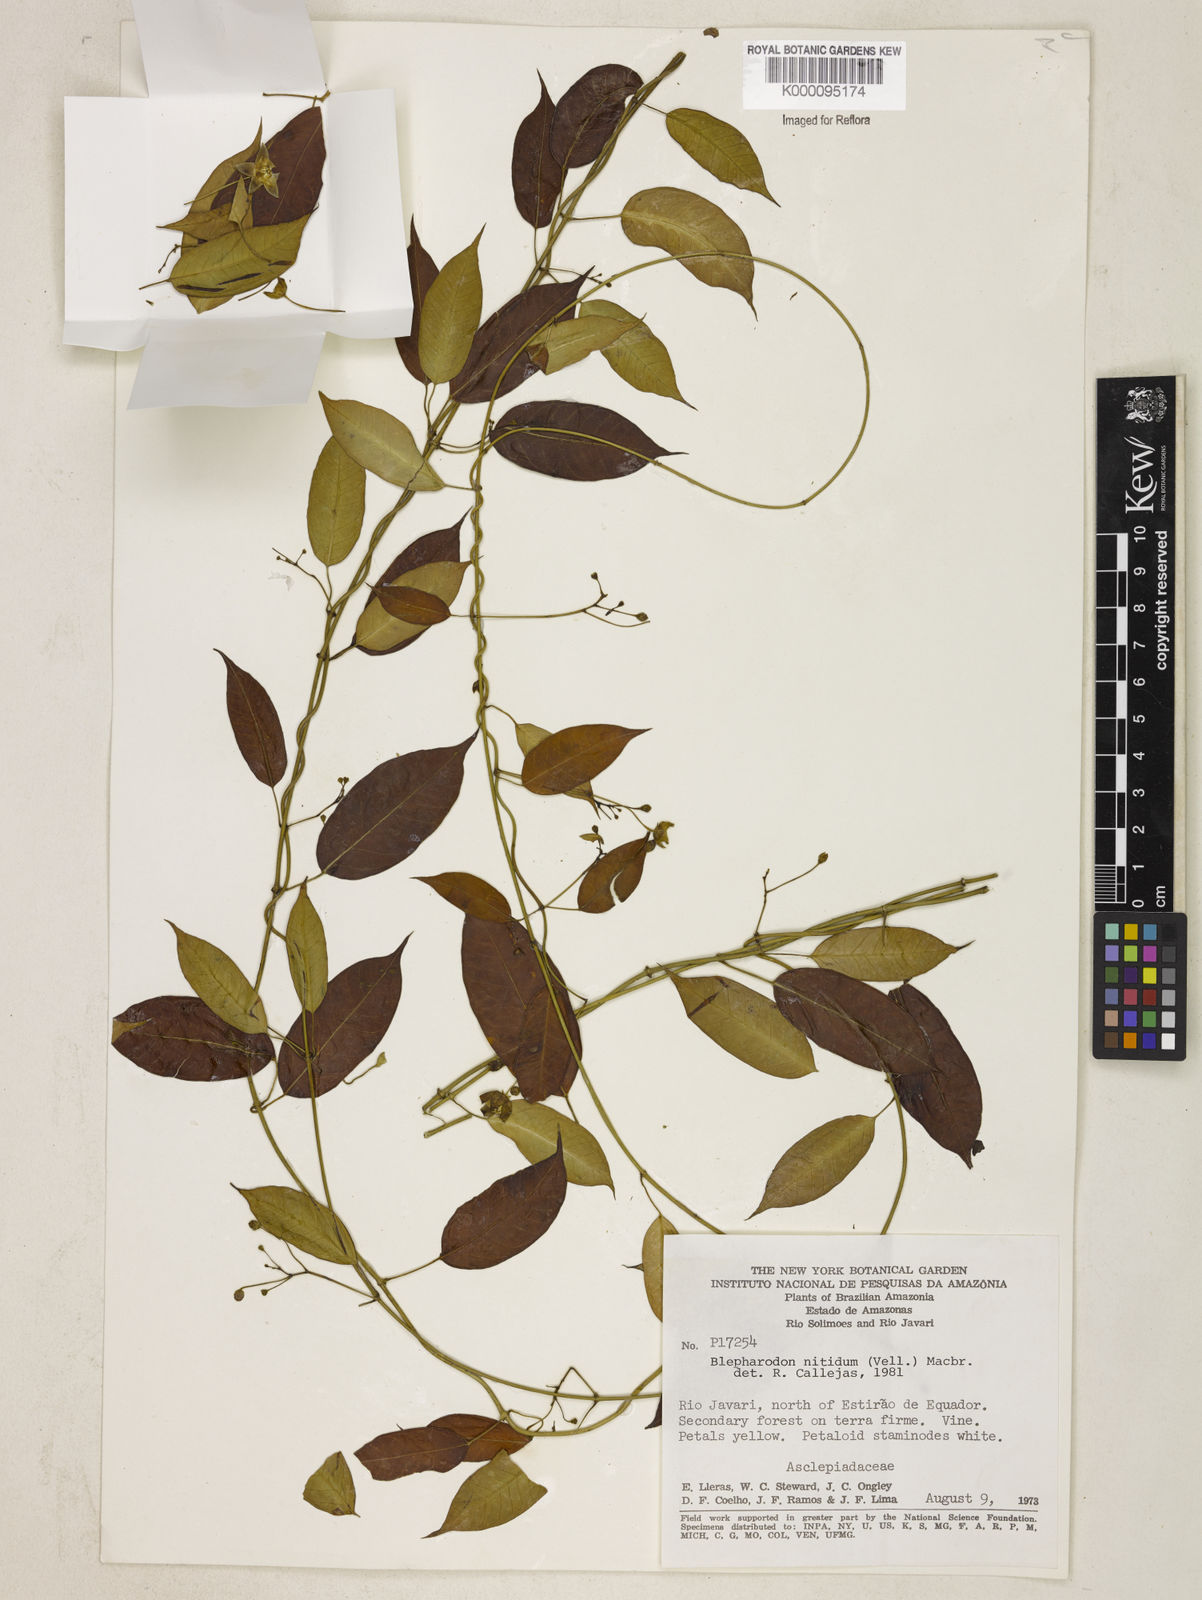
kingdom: Plantae
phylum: Tracheophyta
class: Magnoliopsida
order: Gentianales
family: Apocynaceae
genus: Blepharodon
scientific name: Blepharodon pictum
